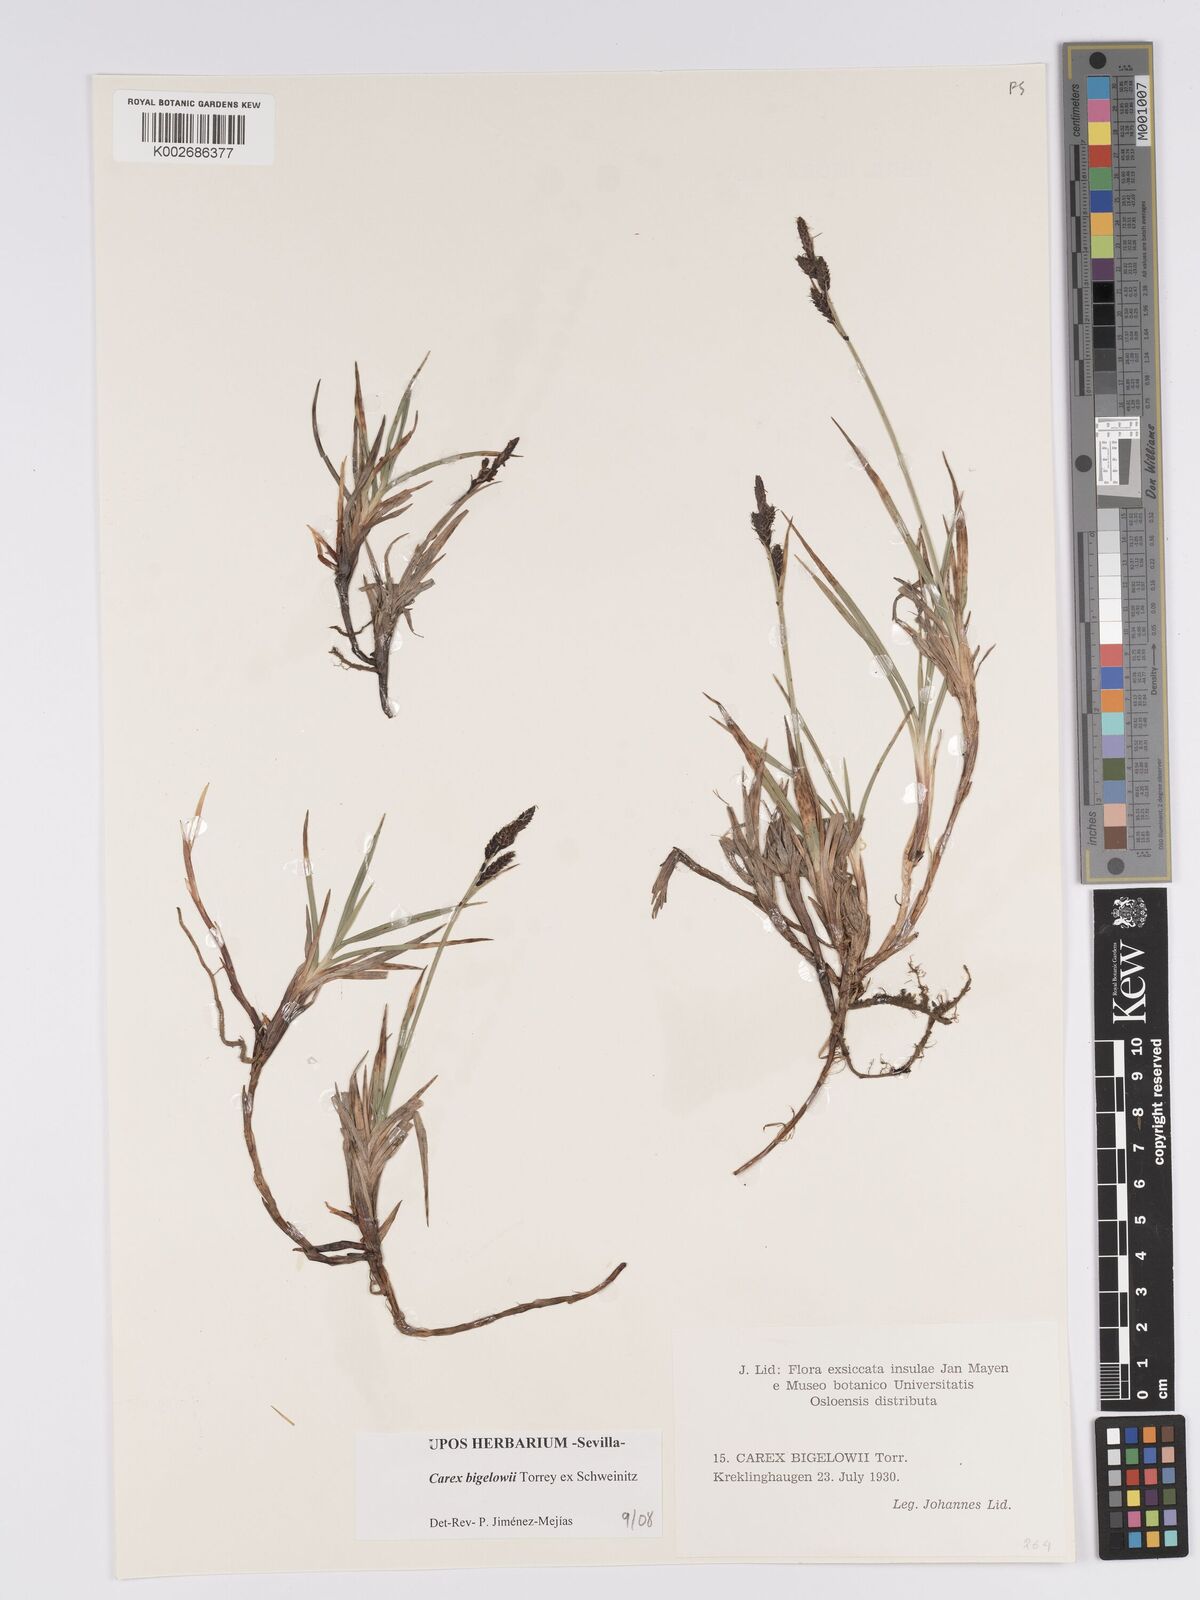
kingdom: Plantae
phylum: Tracheophyta
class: Liliopsida
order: Poales
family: Cyperaceae
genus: Carex
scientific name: Carex bigelowii
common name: Stiff sedge
